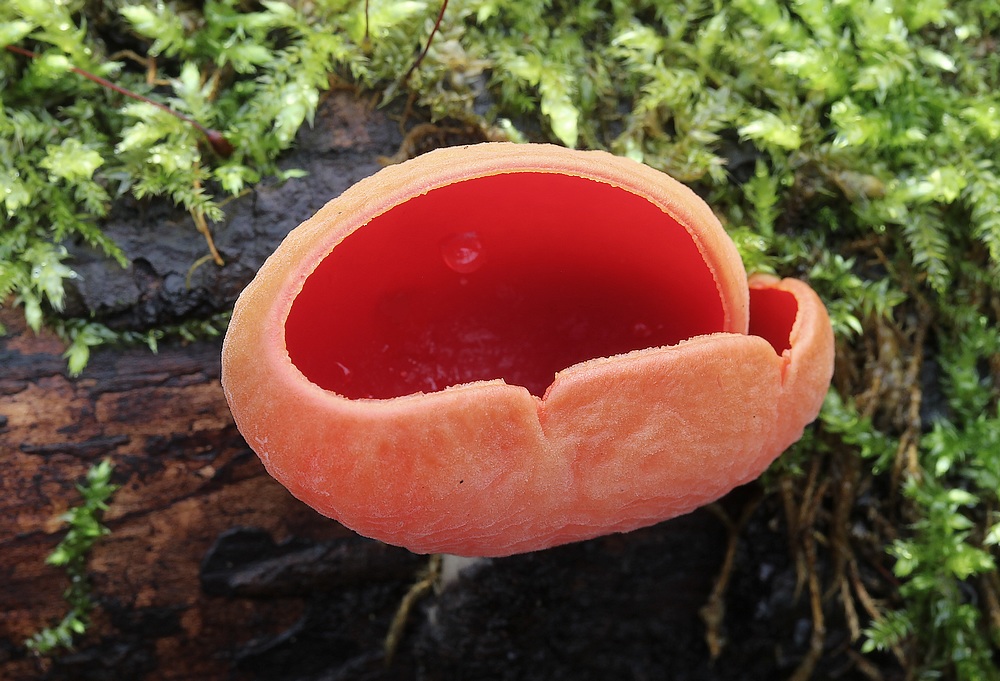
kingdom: Fungi
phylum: Ascomycota
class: Pezizomycetes
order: Pezizales
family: Sarcoscyphaceae
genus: Sarcoscypha
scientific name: Sarcoscypha austriaca
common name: krølhåret pragtbæger
